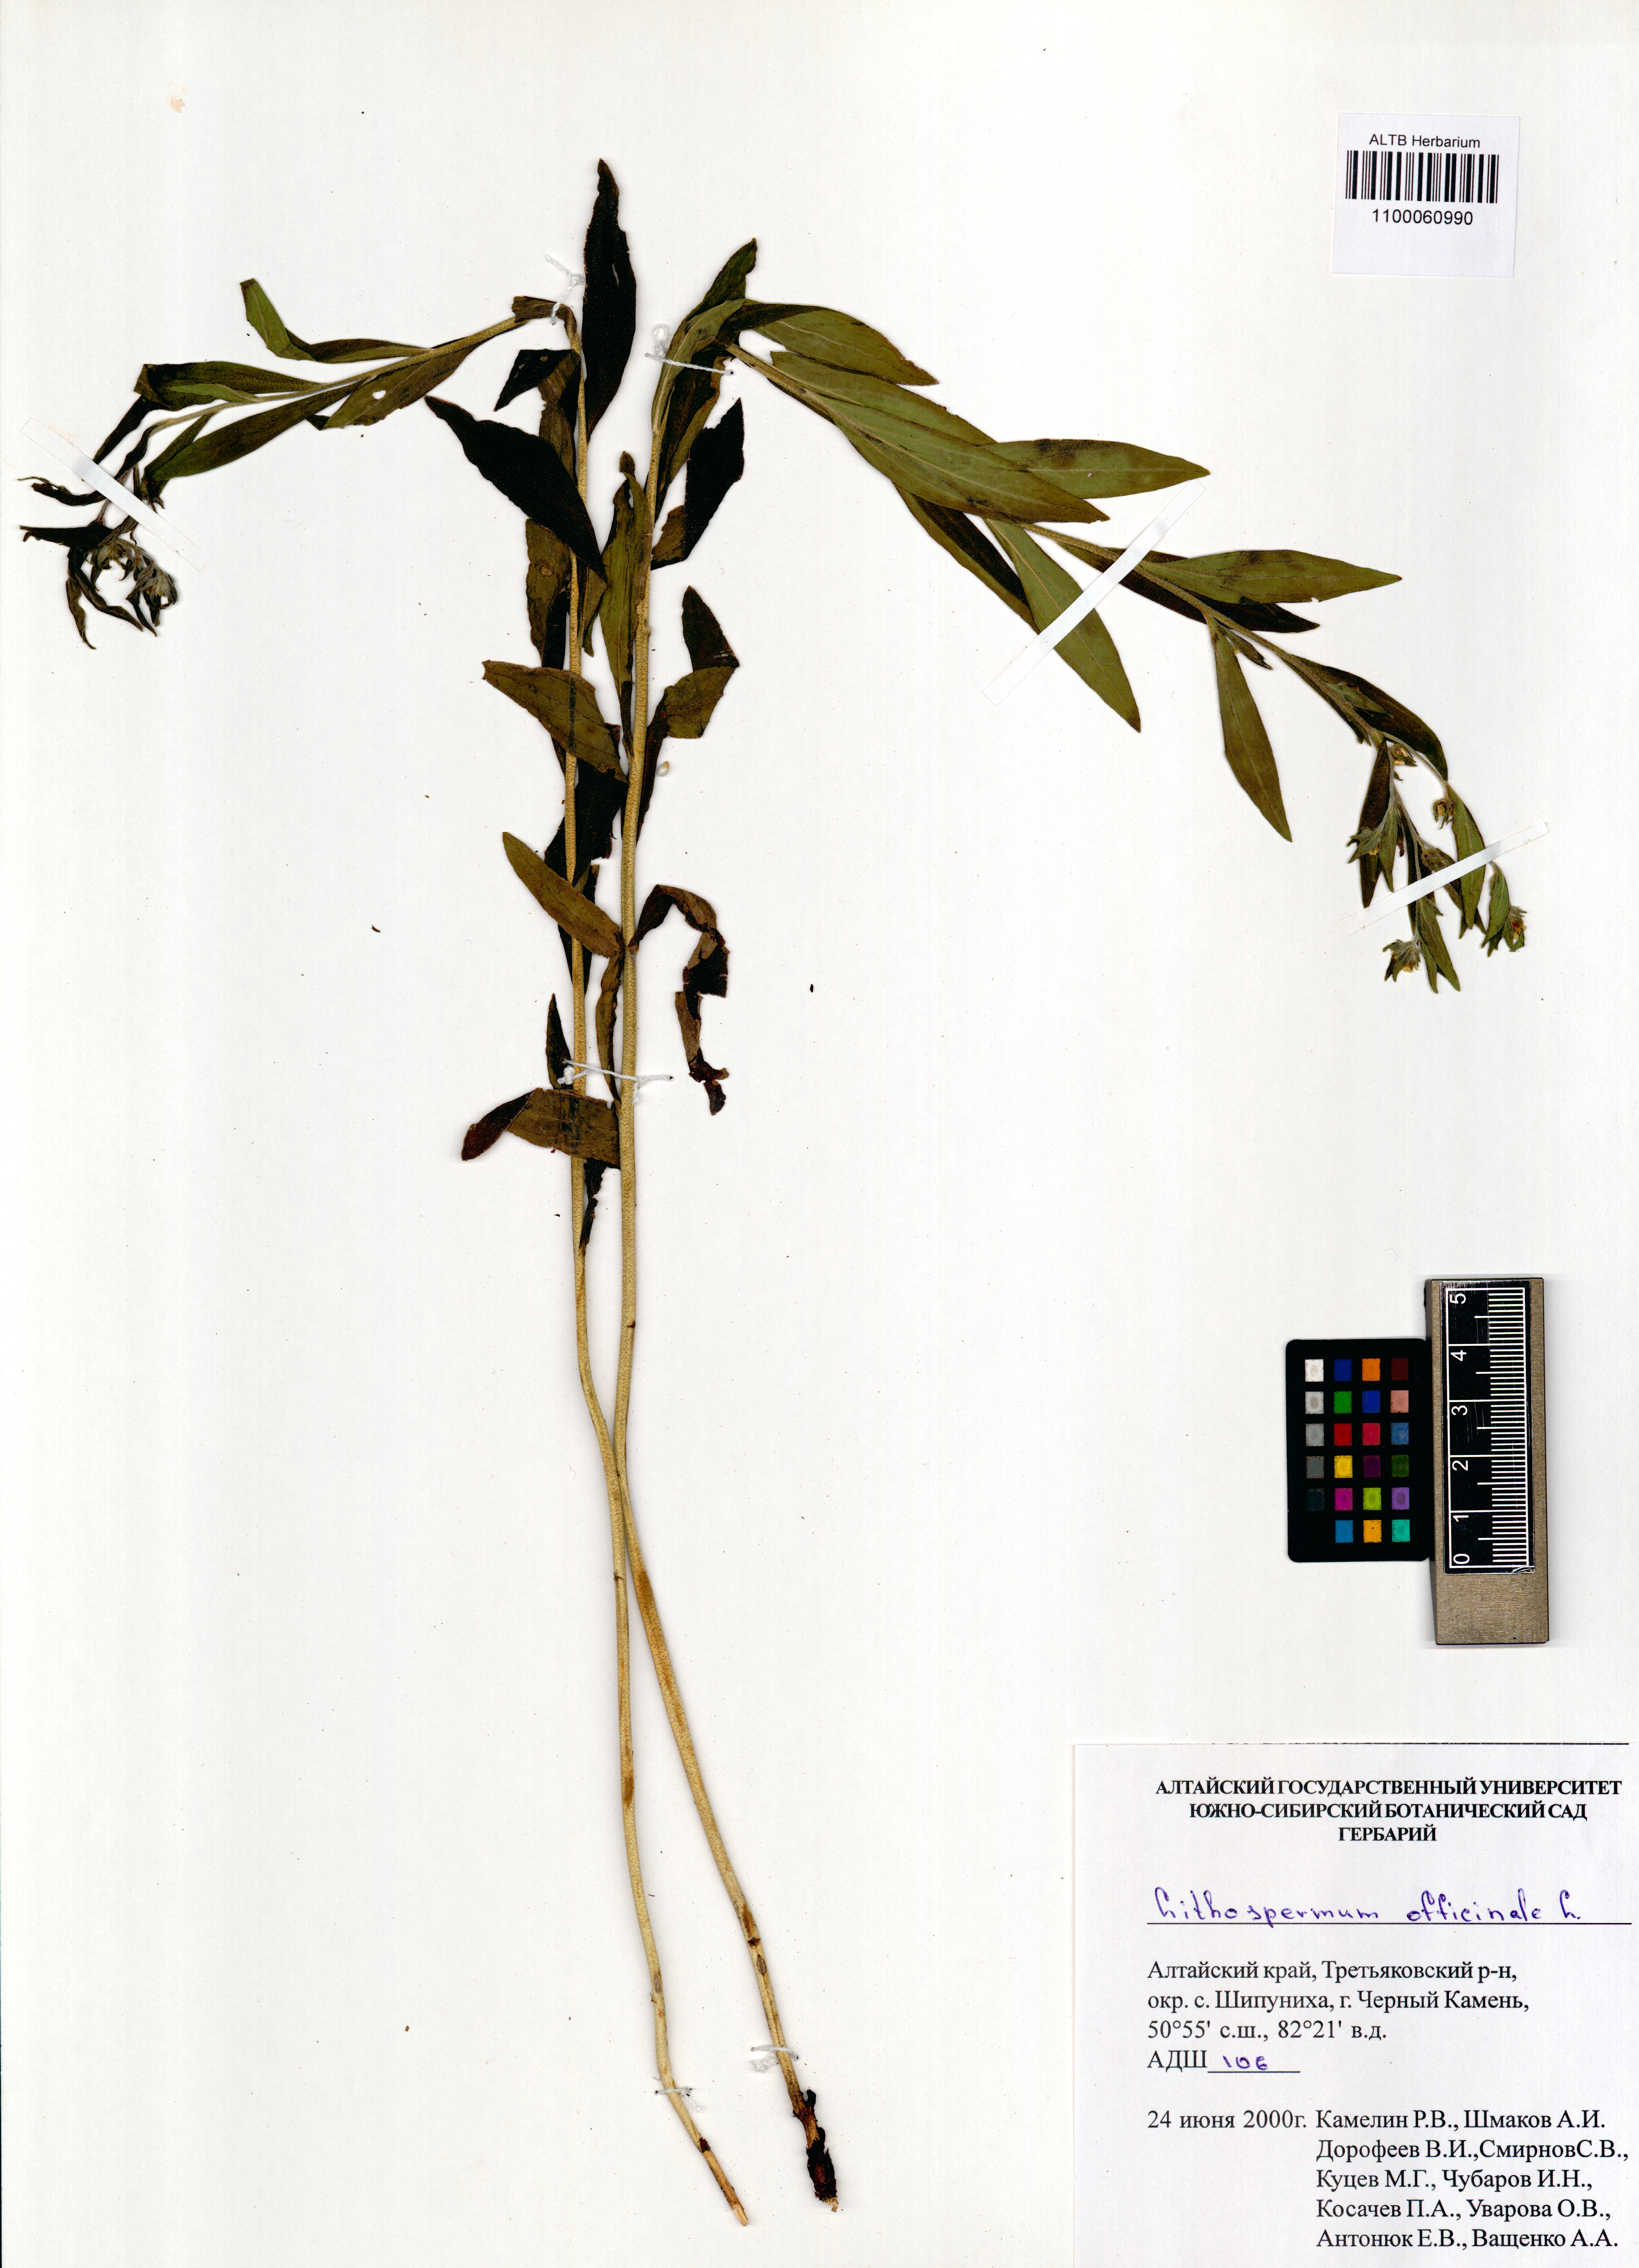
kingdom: Plantae
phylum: Tracheophyta
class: Magnoliopsida
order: Boraginales
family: Boraginaceae
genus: Lithospermum
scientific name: Lithospermum officinale
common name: Common gromwell
